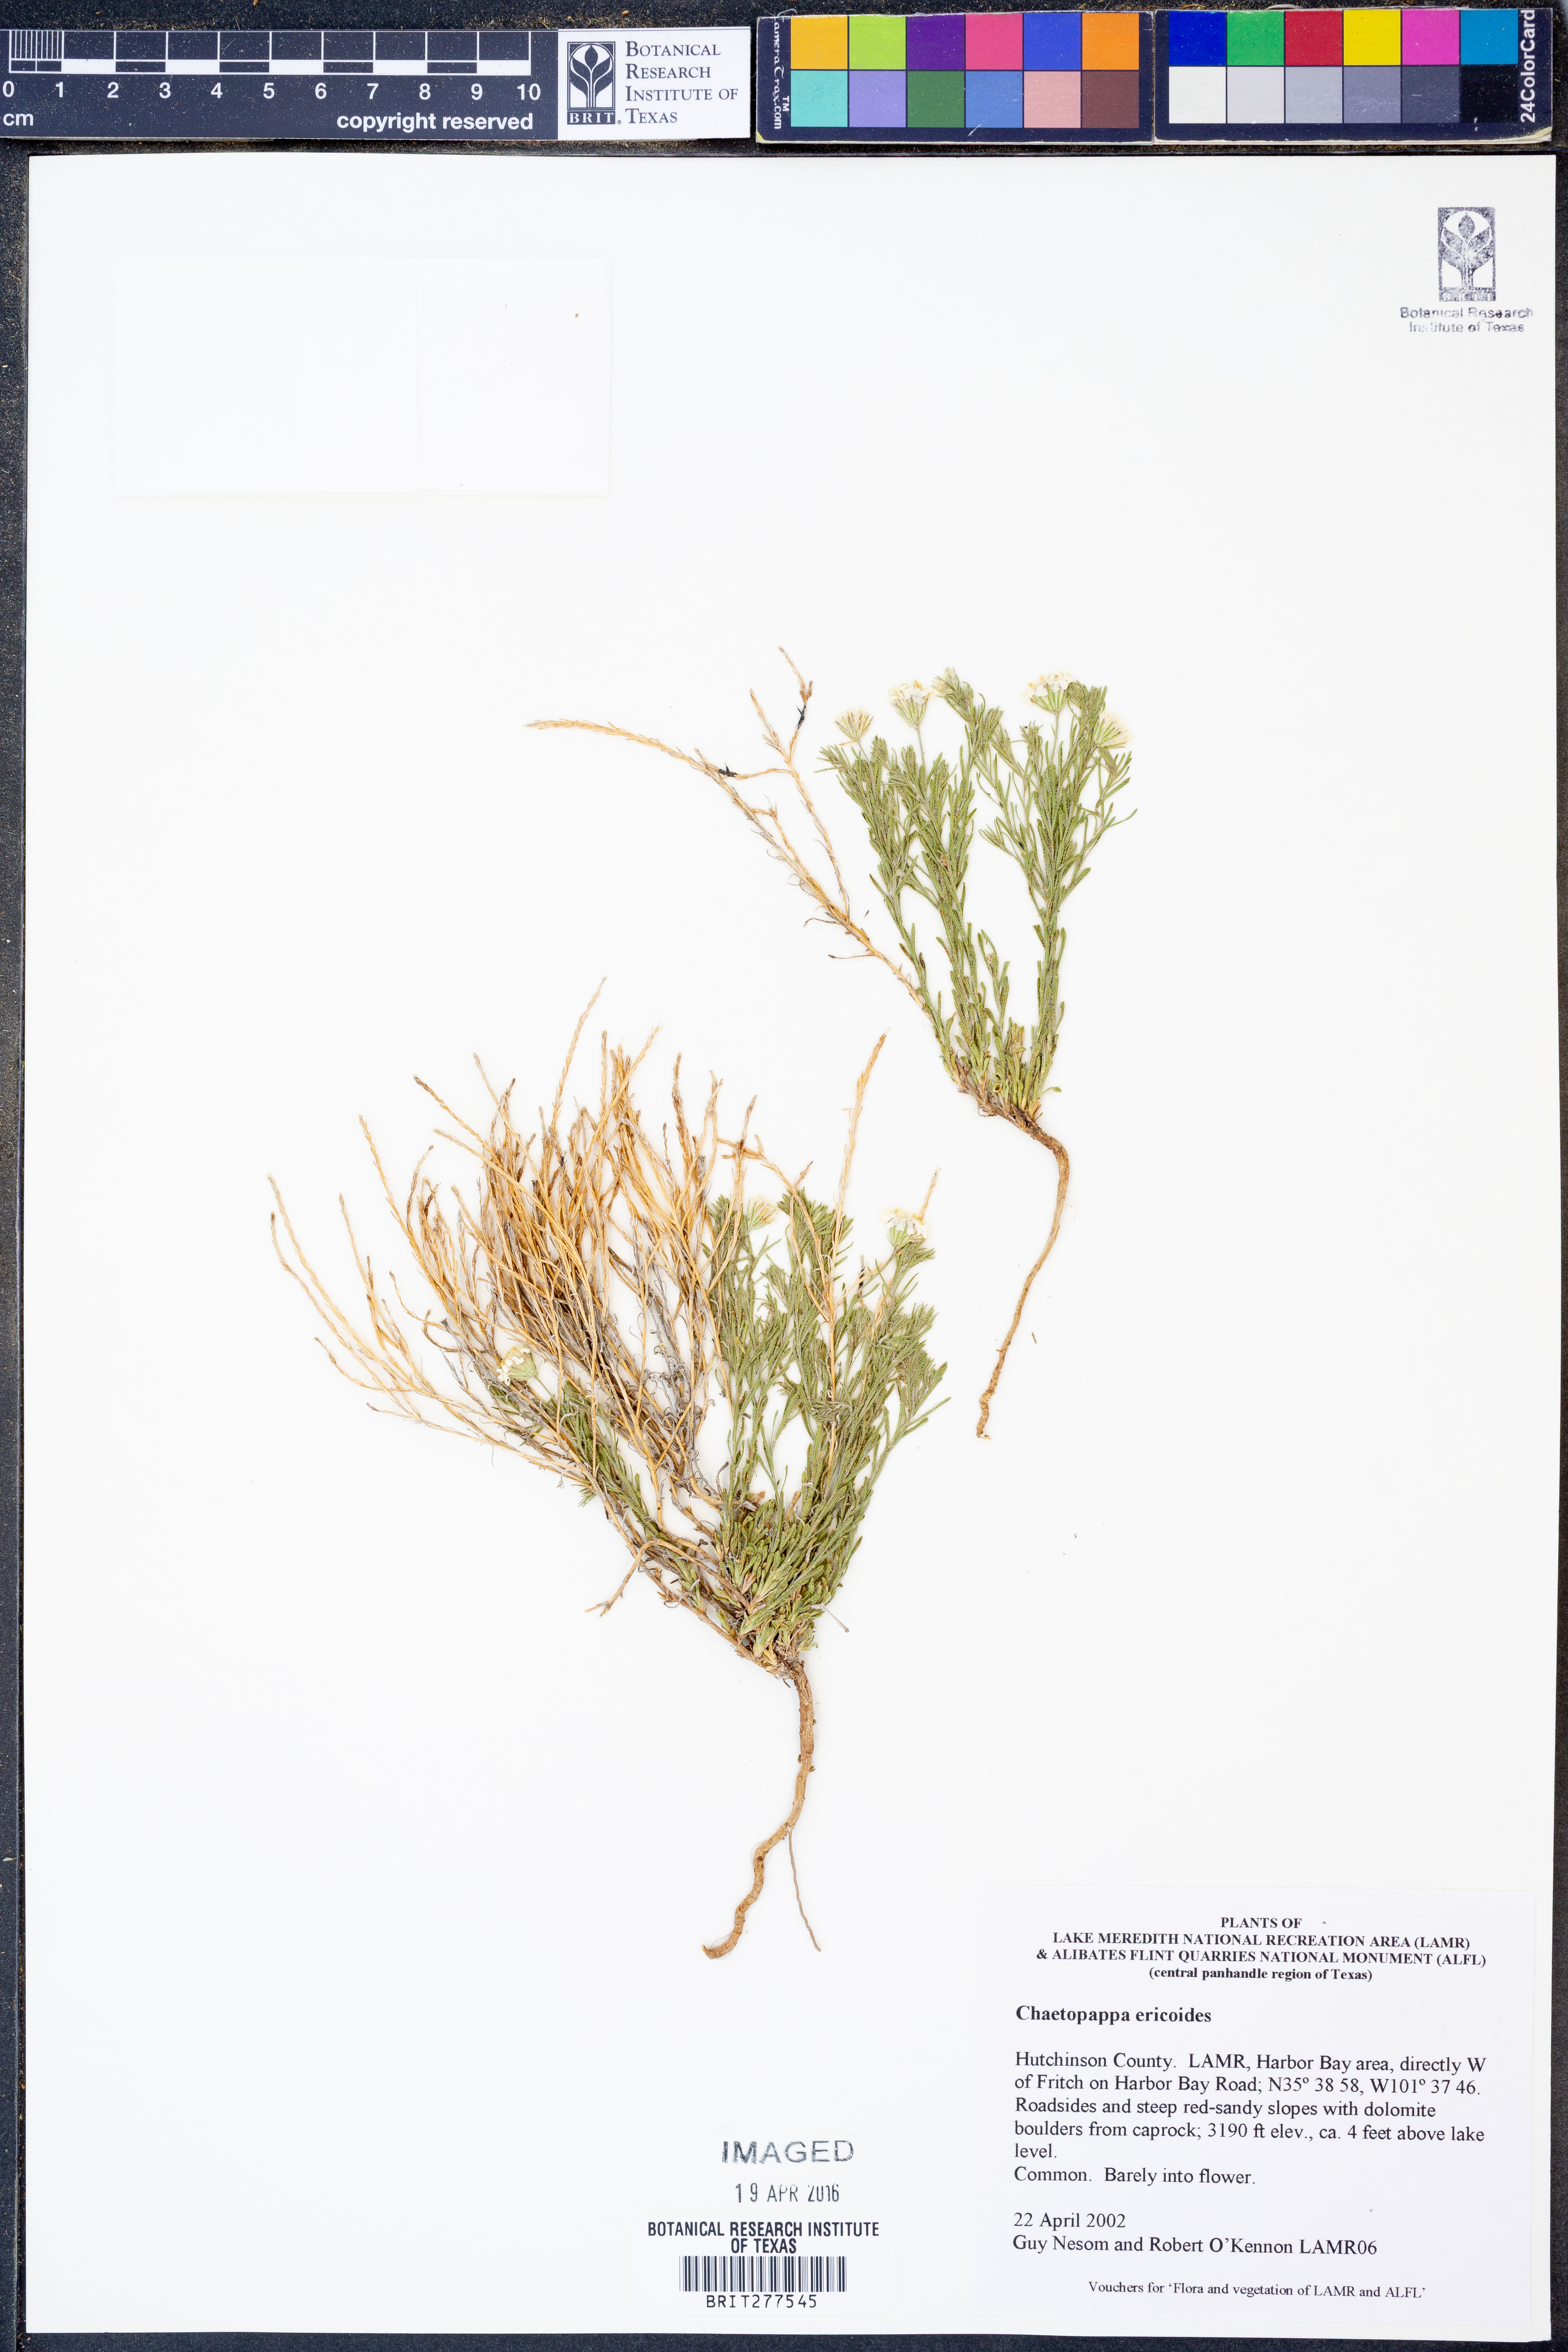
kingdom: Plantae
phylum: Tracheophyta
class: Magnoliopsida
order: Asterales
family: Asteraceae
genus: Chaetopappa
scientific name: Chaetopappa ericoides
